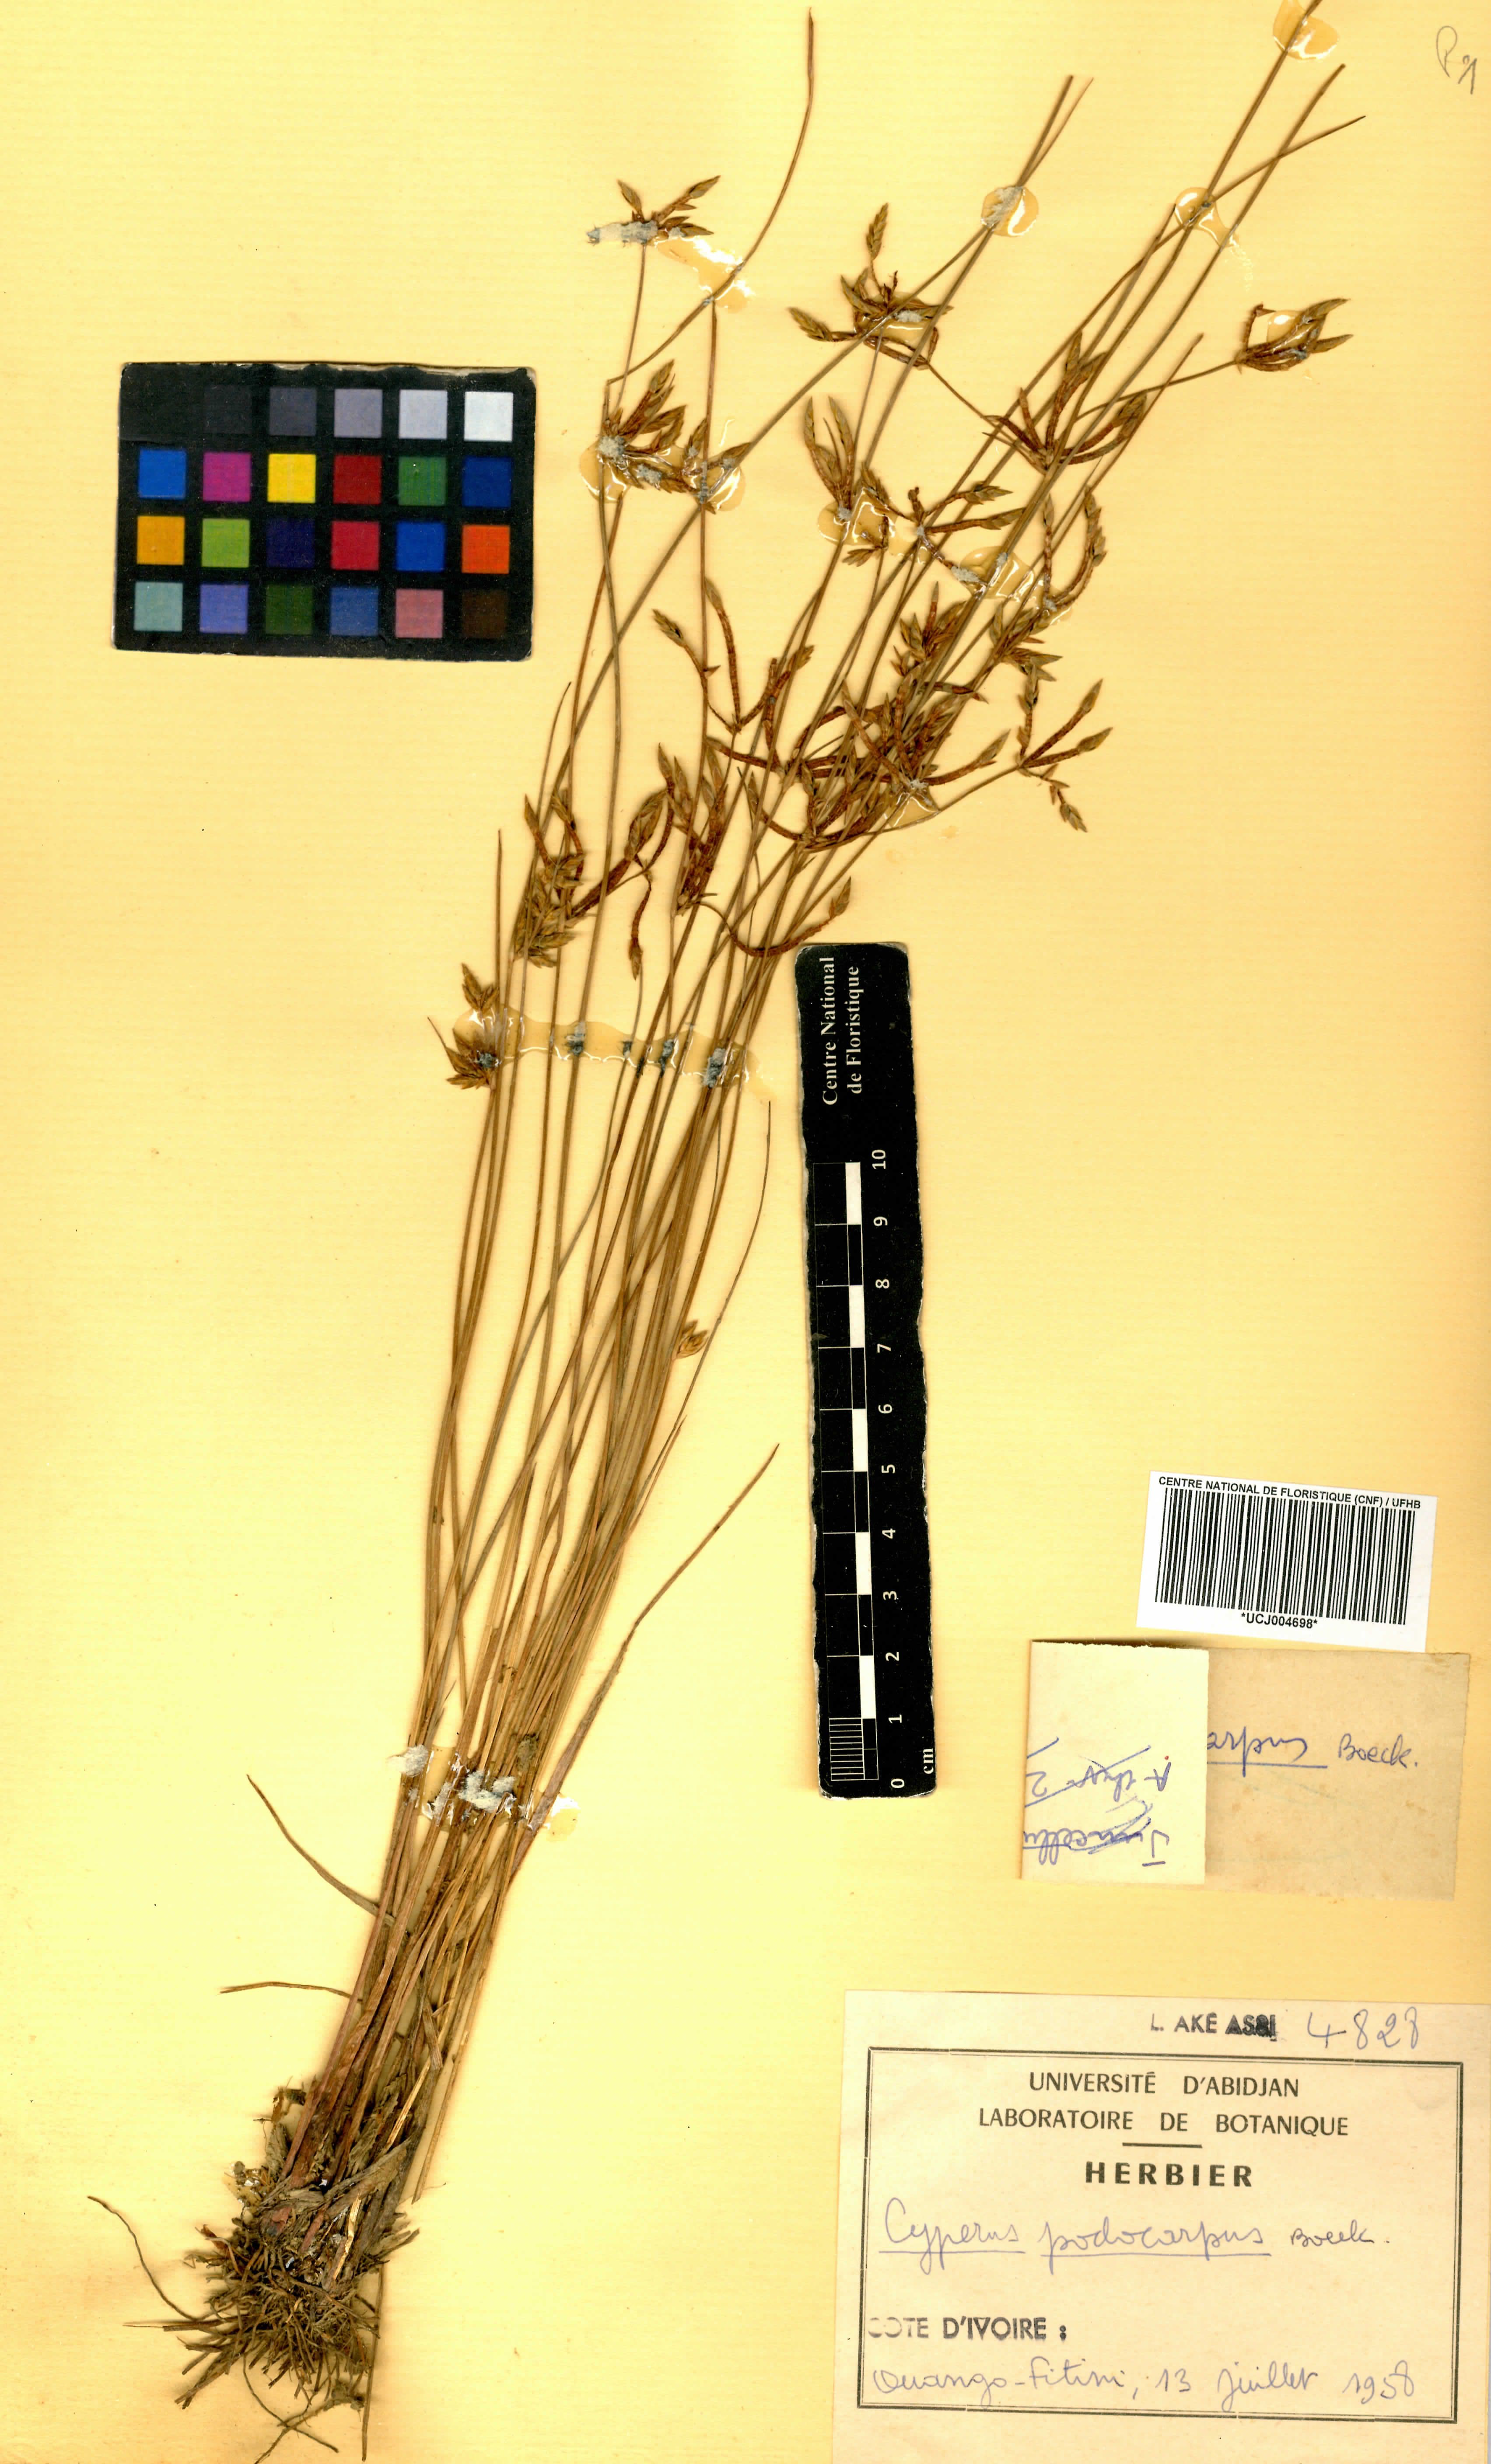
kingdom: Plantae
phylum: Tracheophyta
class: Liliopsida
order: Poales
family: Cyperaceae
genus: Cyperus
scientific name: Cyperus podocarpus
